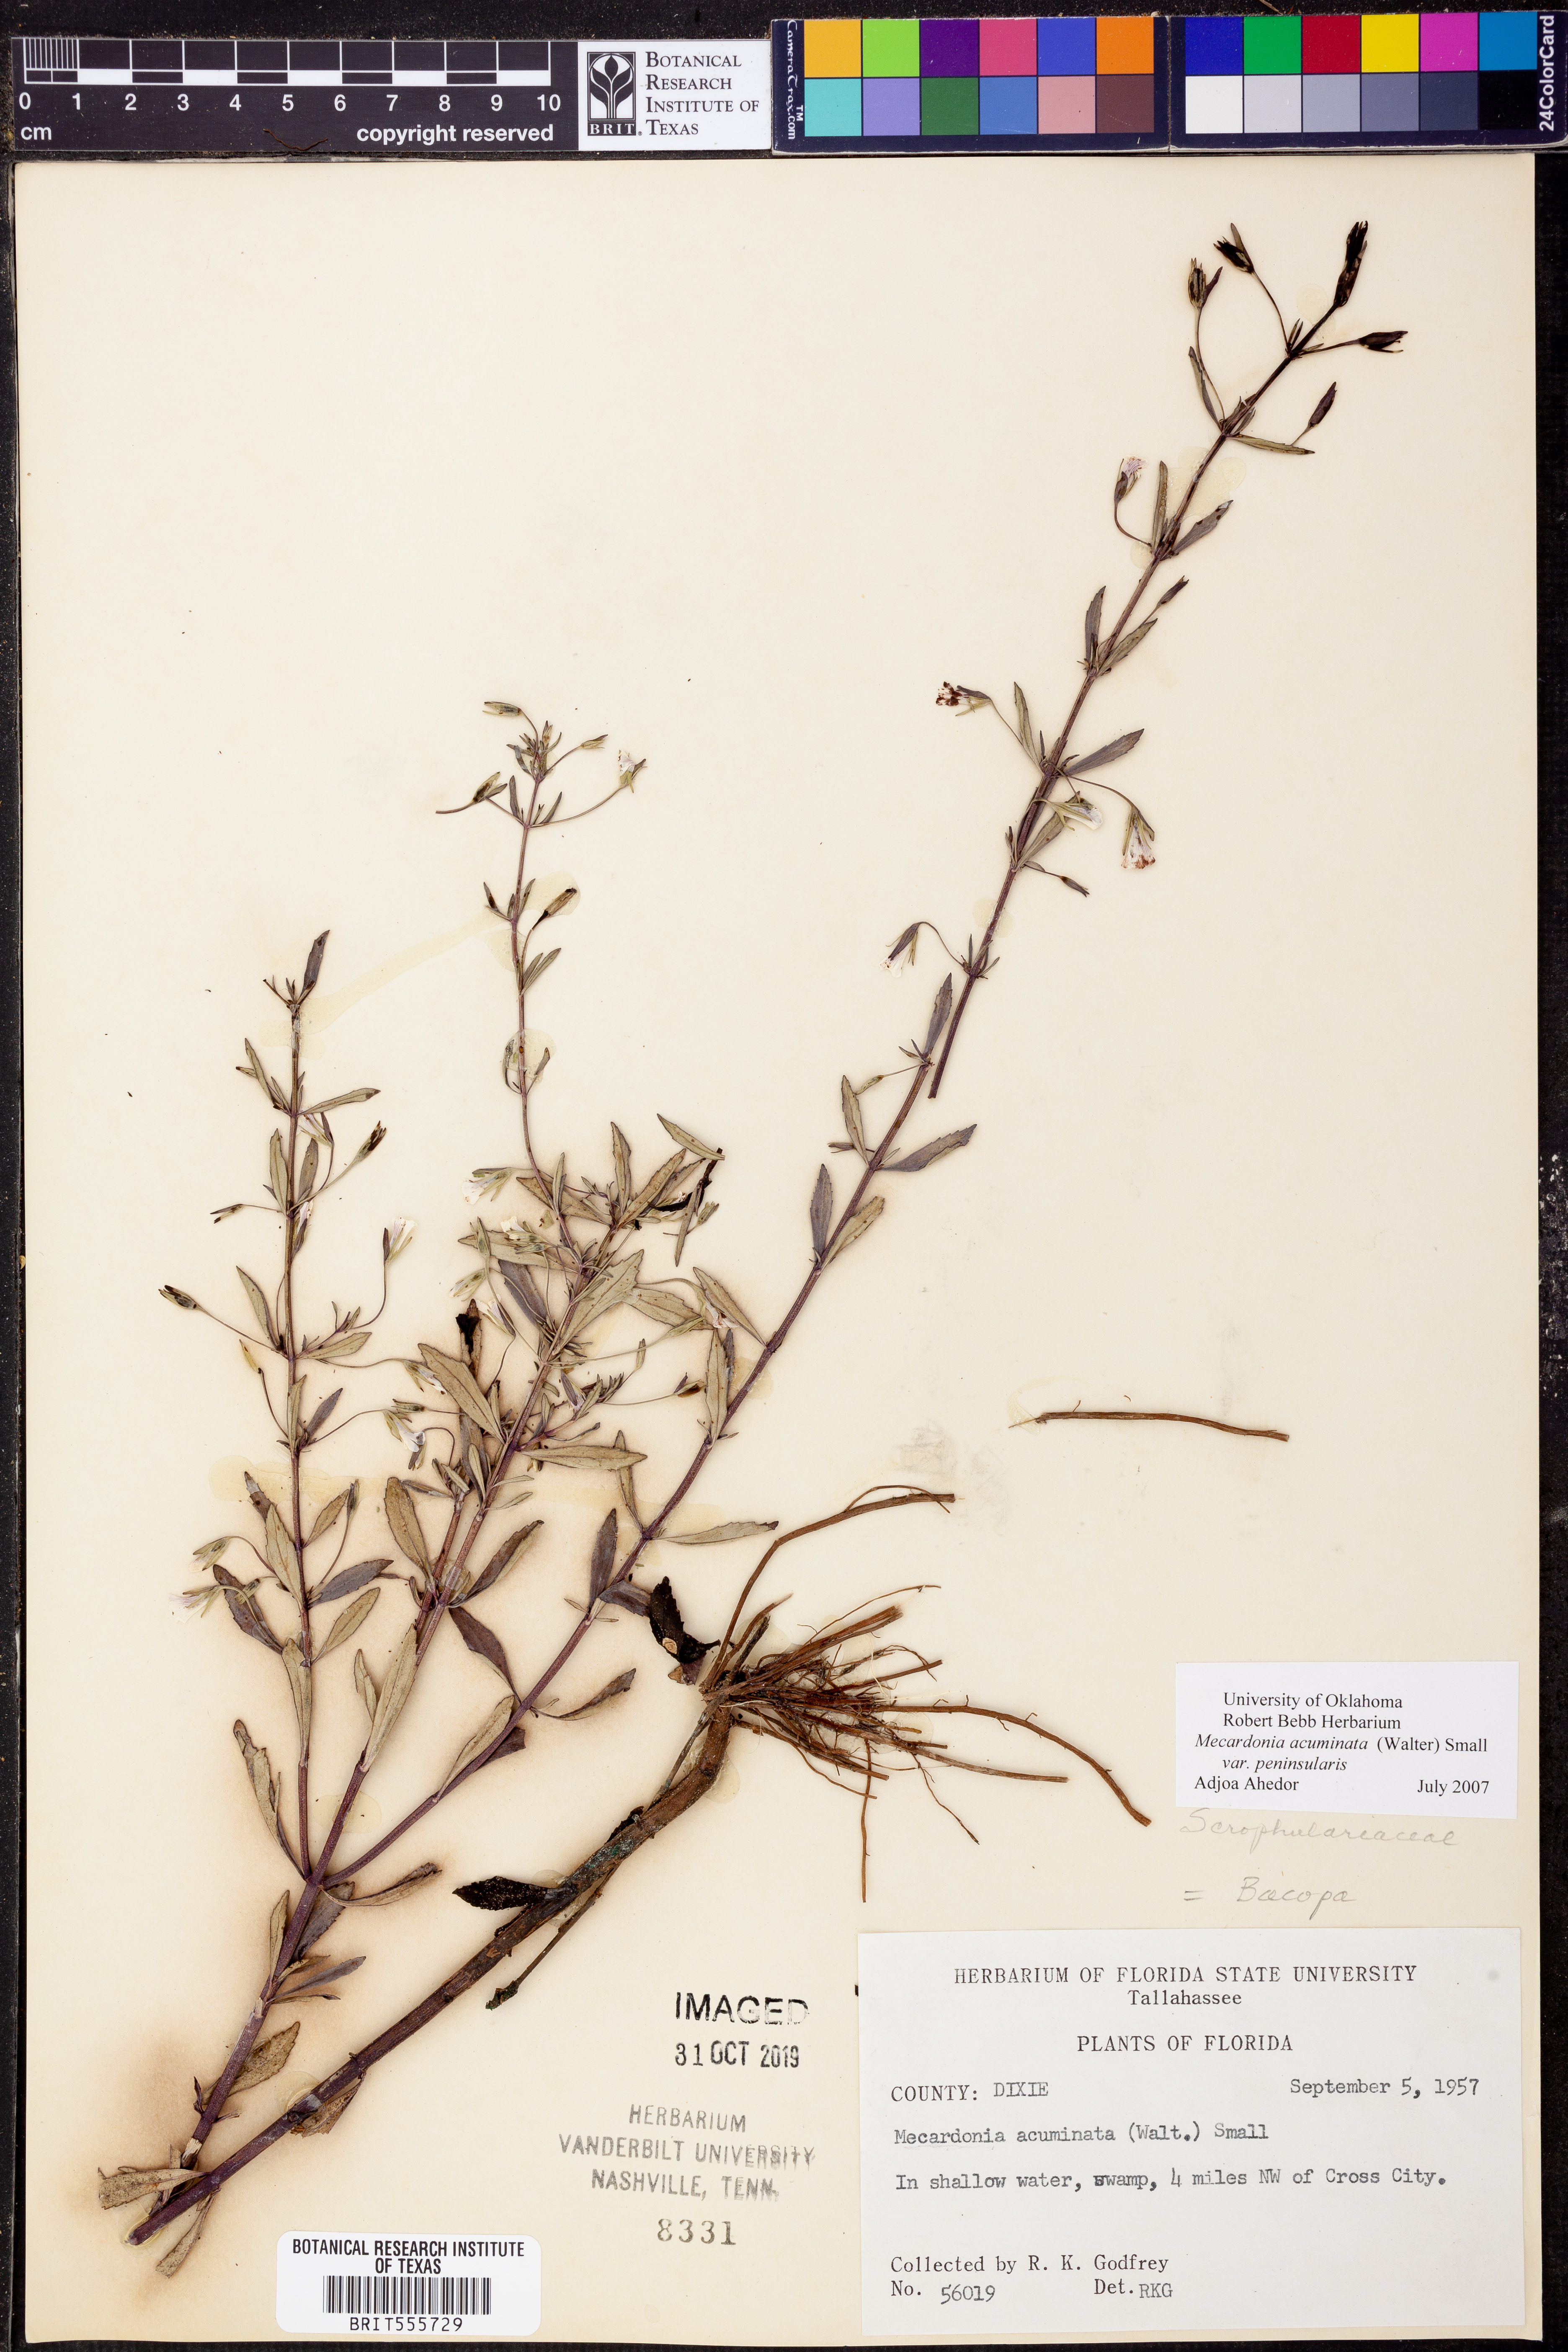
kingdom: Plantae
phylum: Tracheophyta
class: Magnoliopsida
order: Lamiales
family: Plantaginaceae
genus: Mecardonia
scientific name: Mecardonia acuminata
